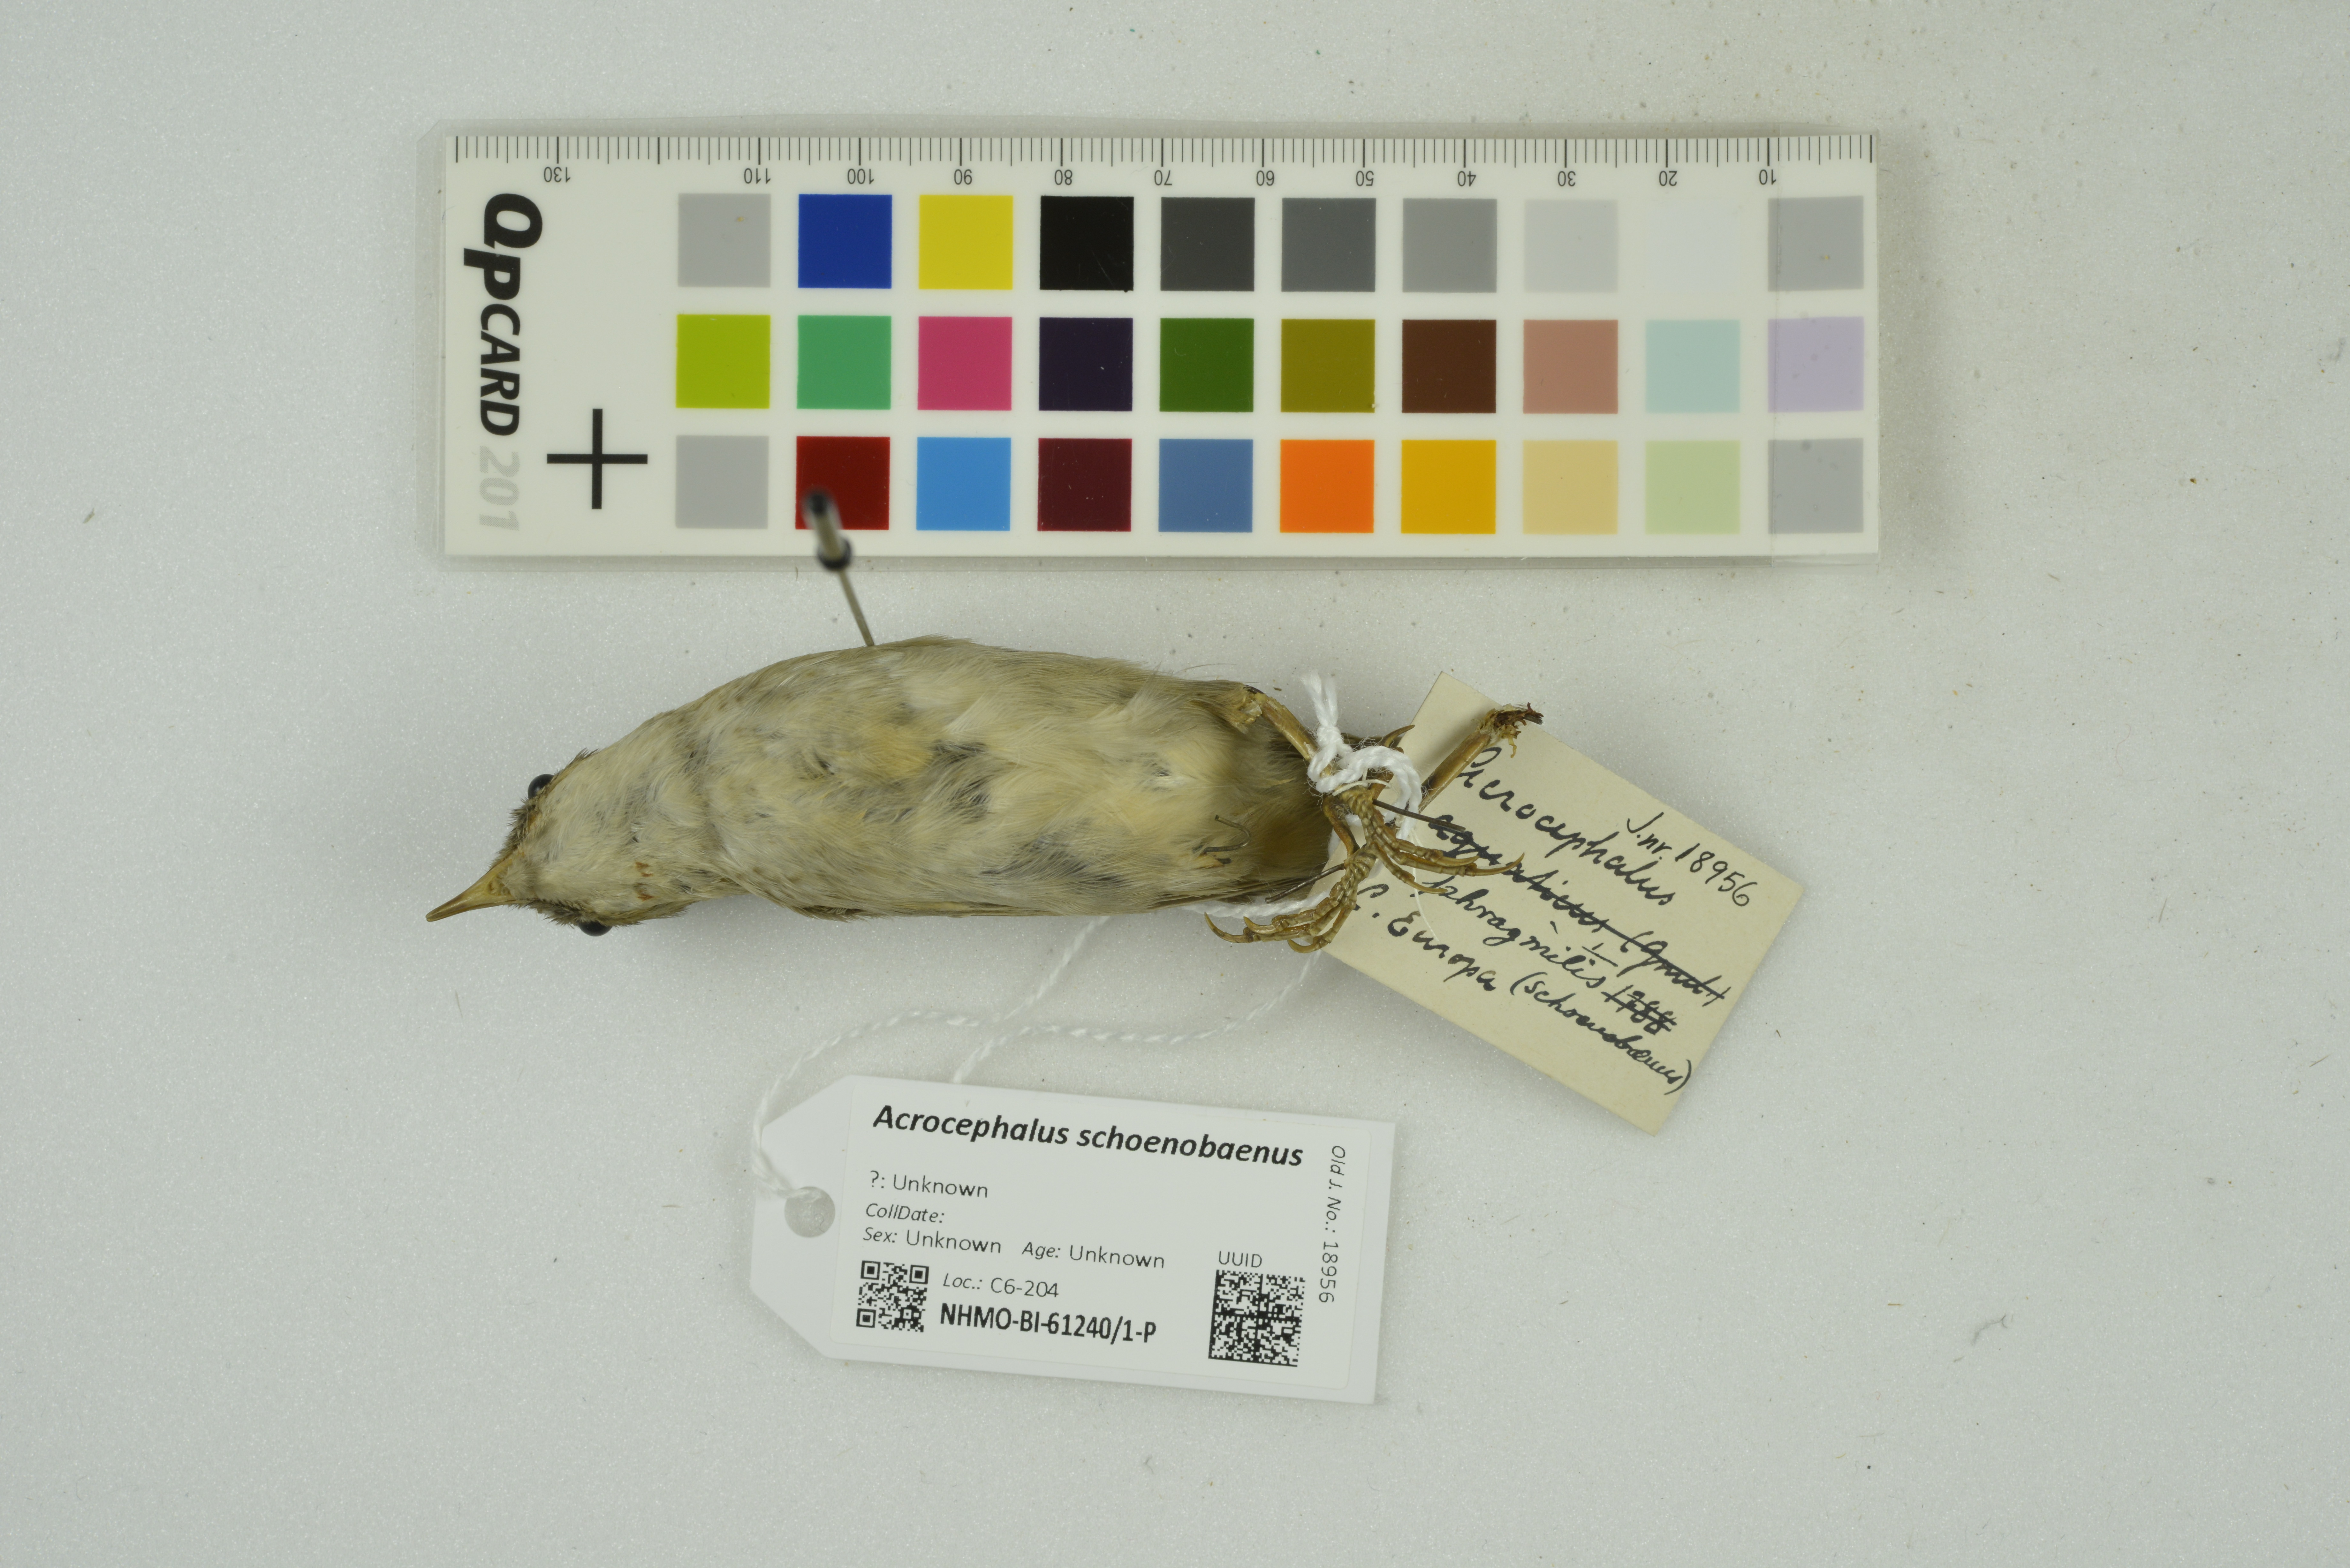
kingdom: Animalia
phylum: Chordata
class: Aves
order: Passeriformes
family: Acrocephalidae
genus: Acrocephalus
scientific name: Acrocephalus schoenobaenus
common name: Sedge warbler
